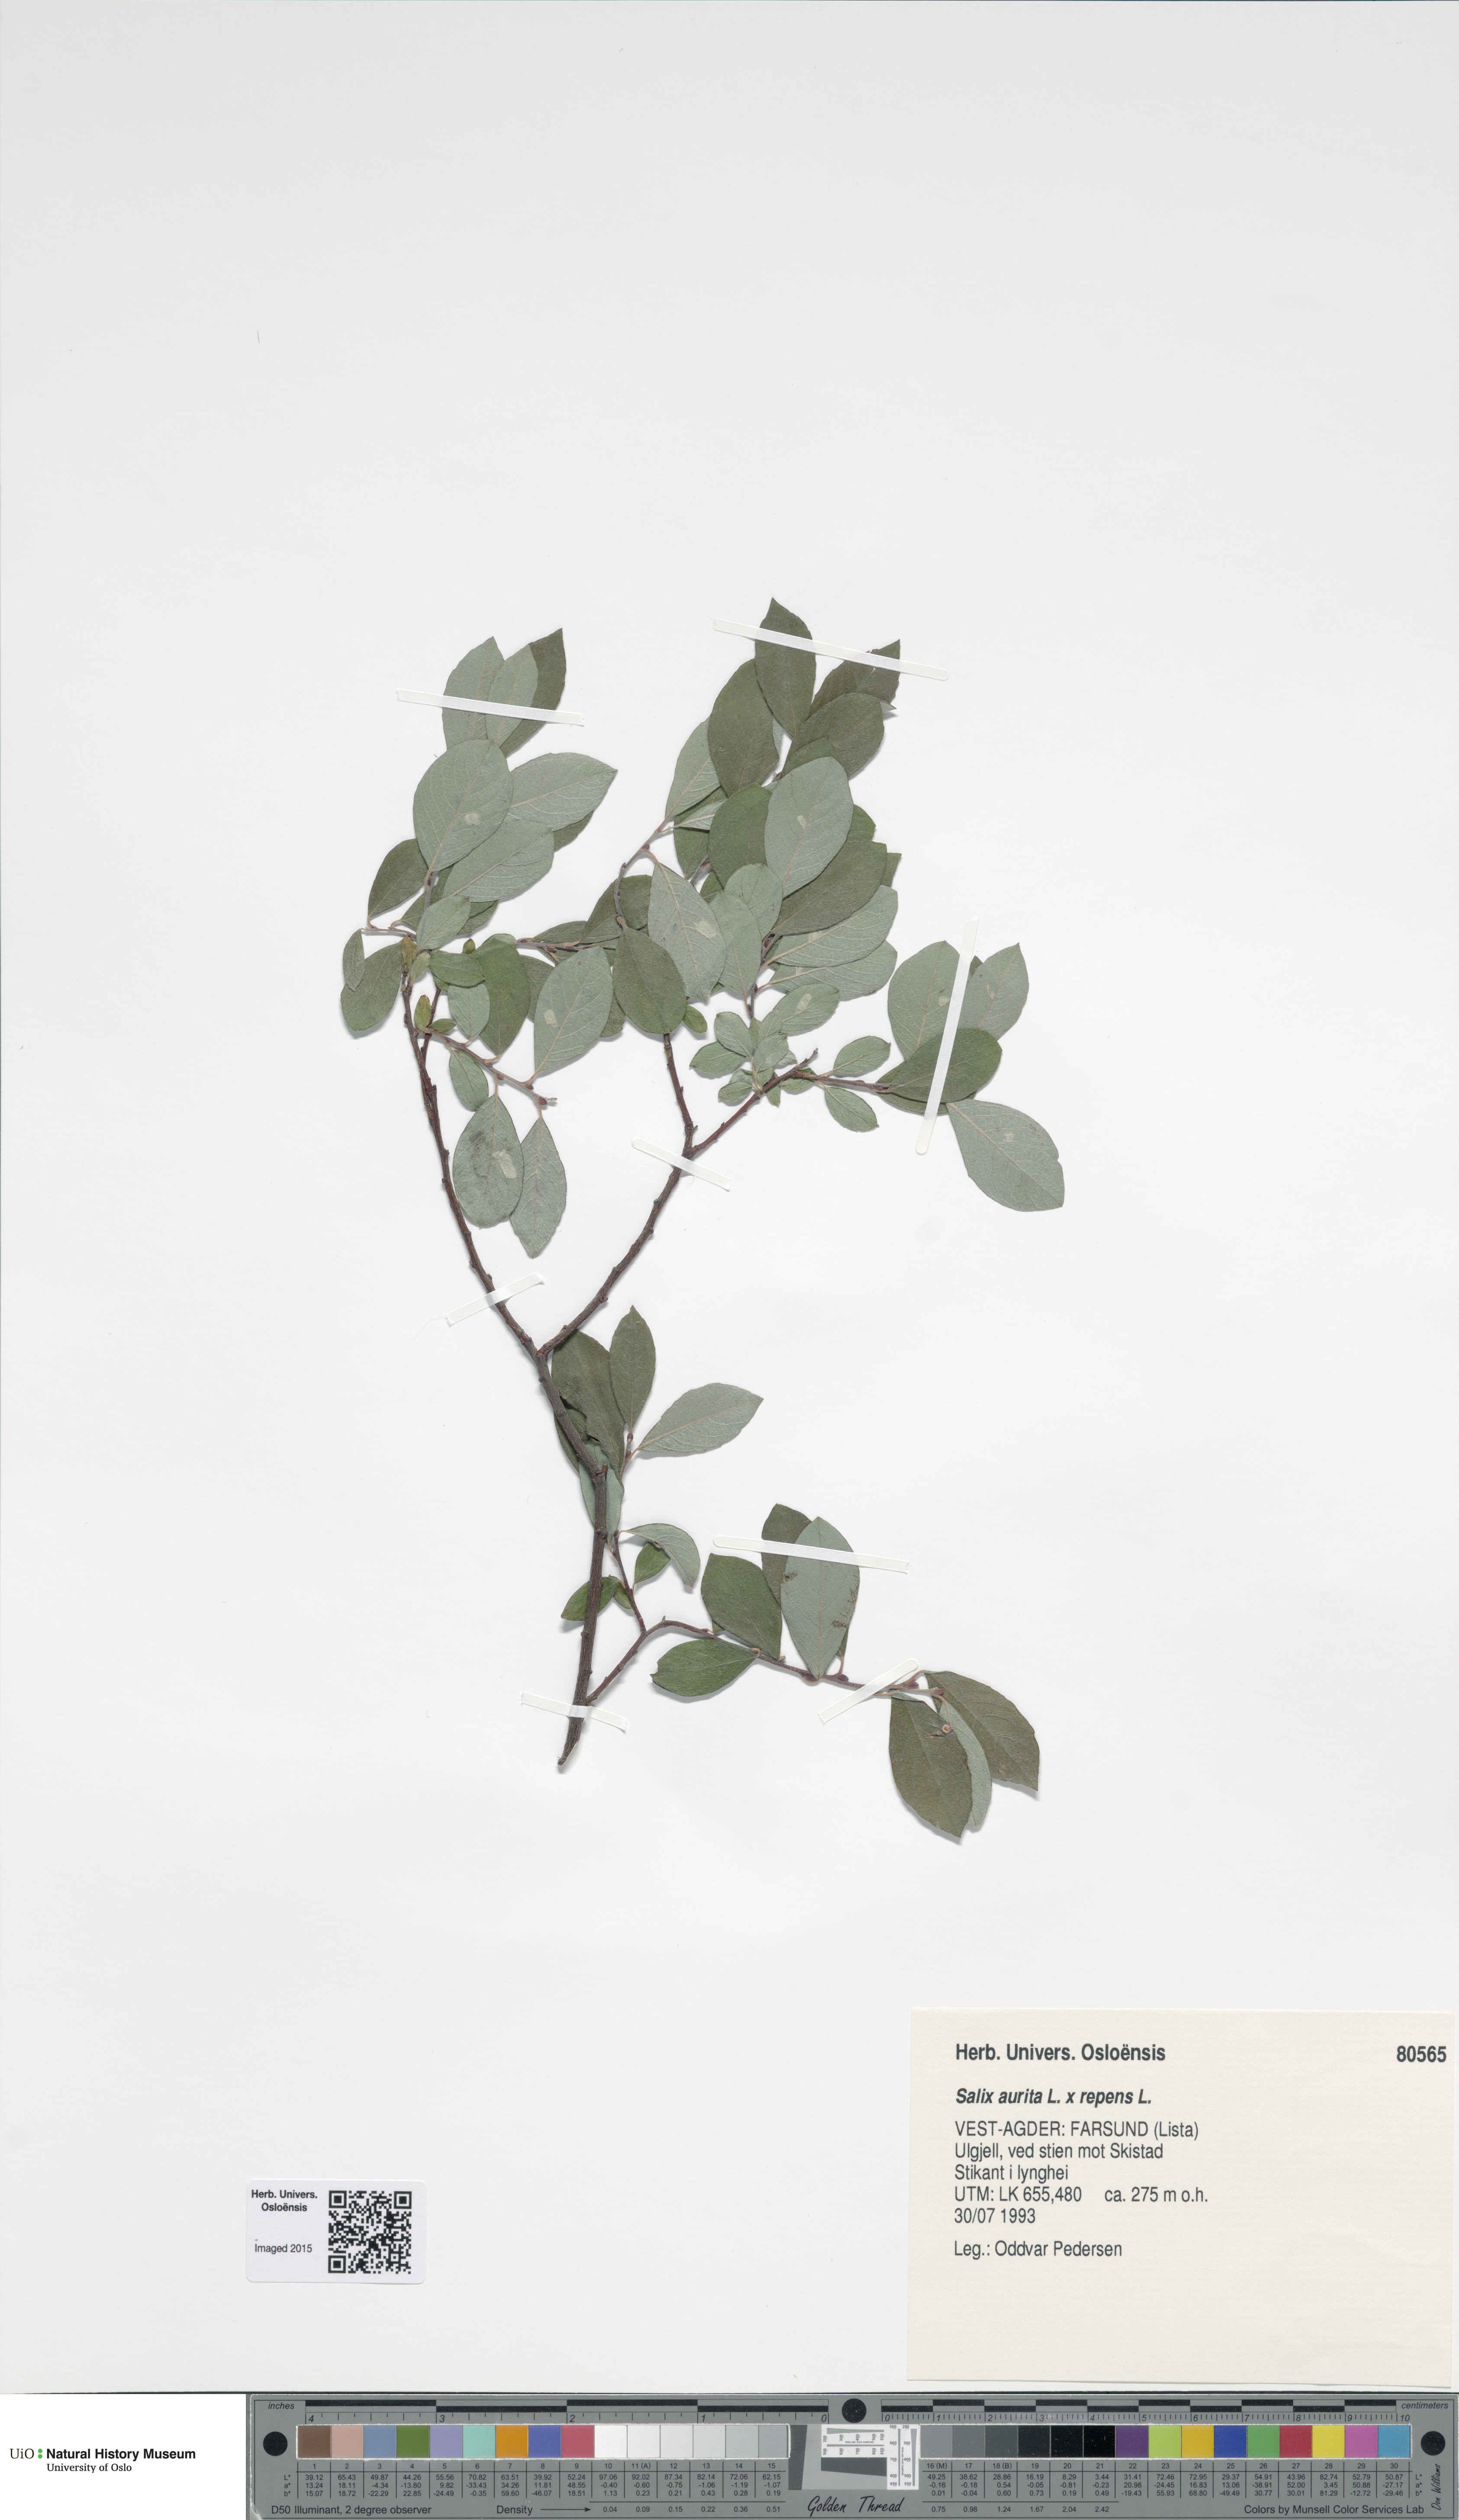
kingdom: Plantae
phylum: Tracheophyta
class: Magnoliopsida
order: Malpighiales
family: Salicaceae
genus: Salix
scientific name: Salix
